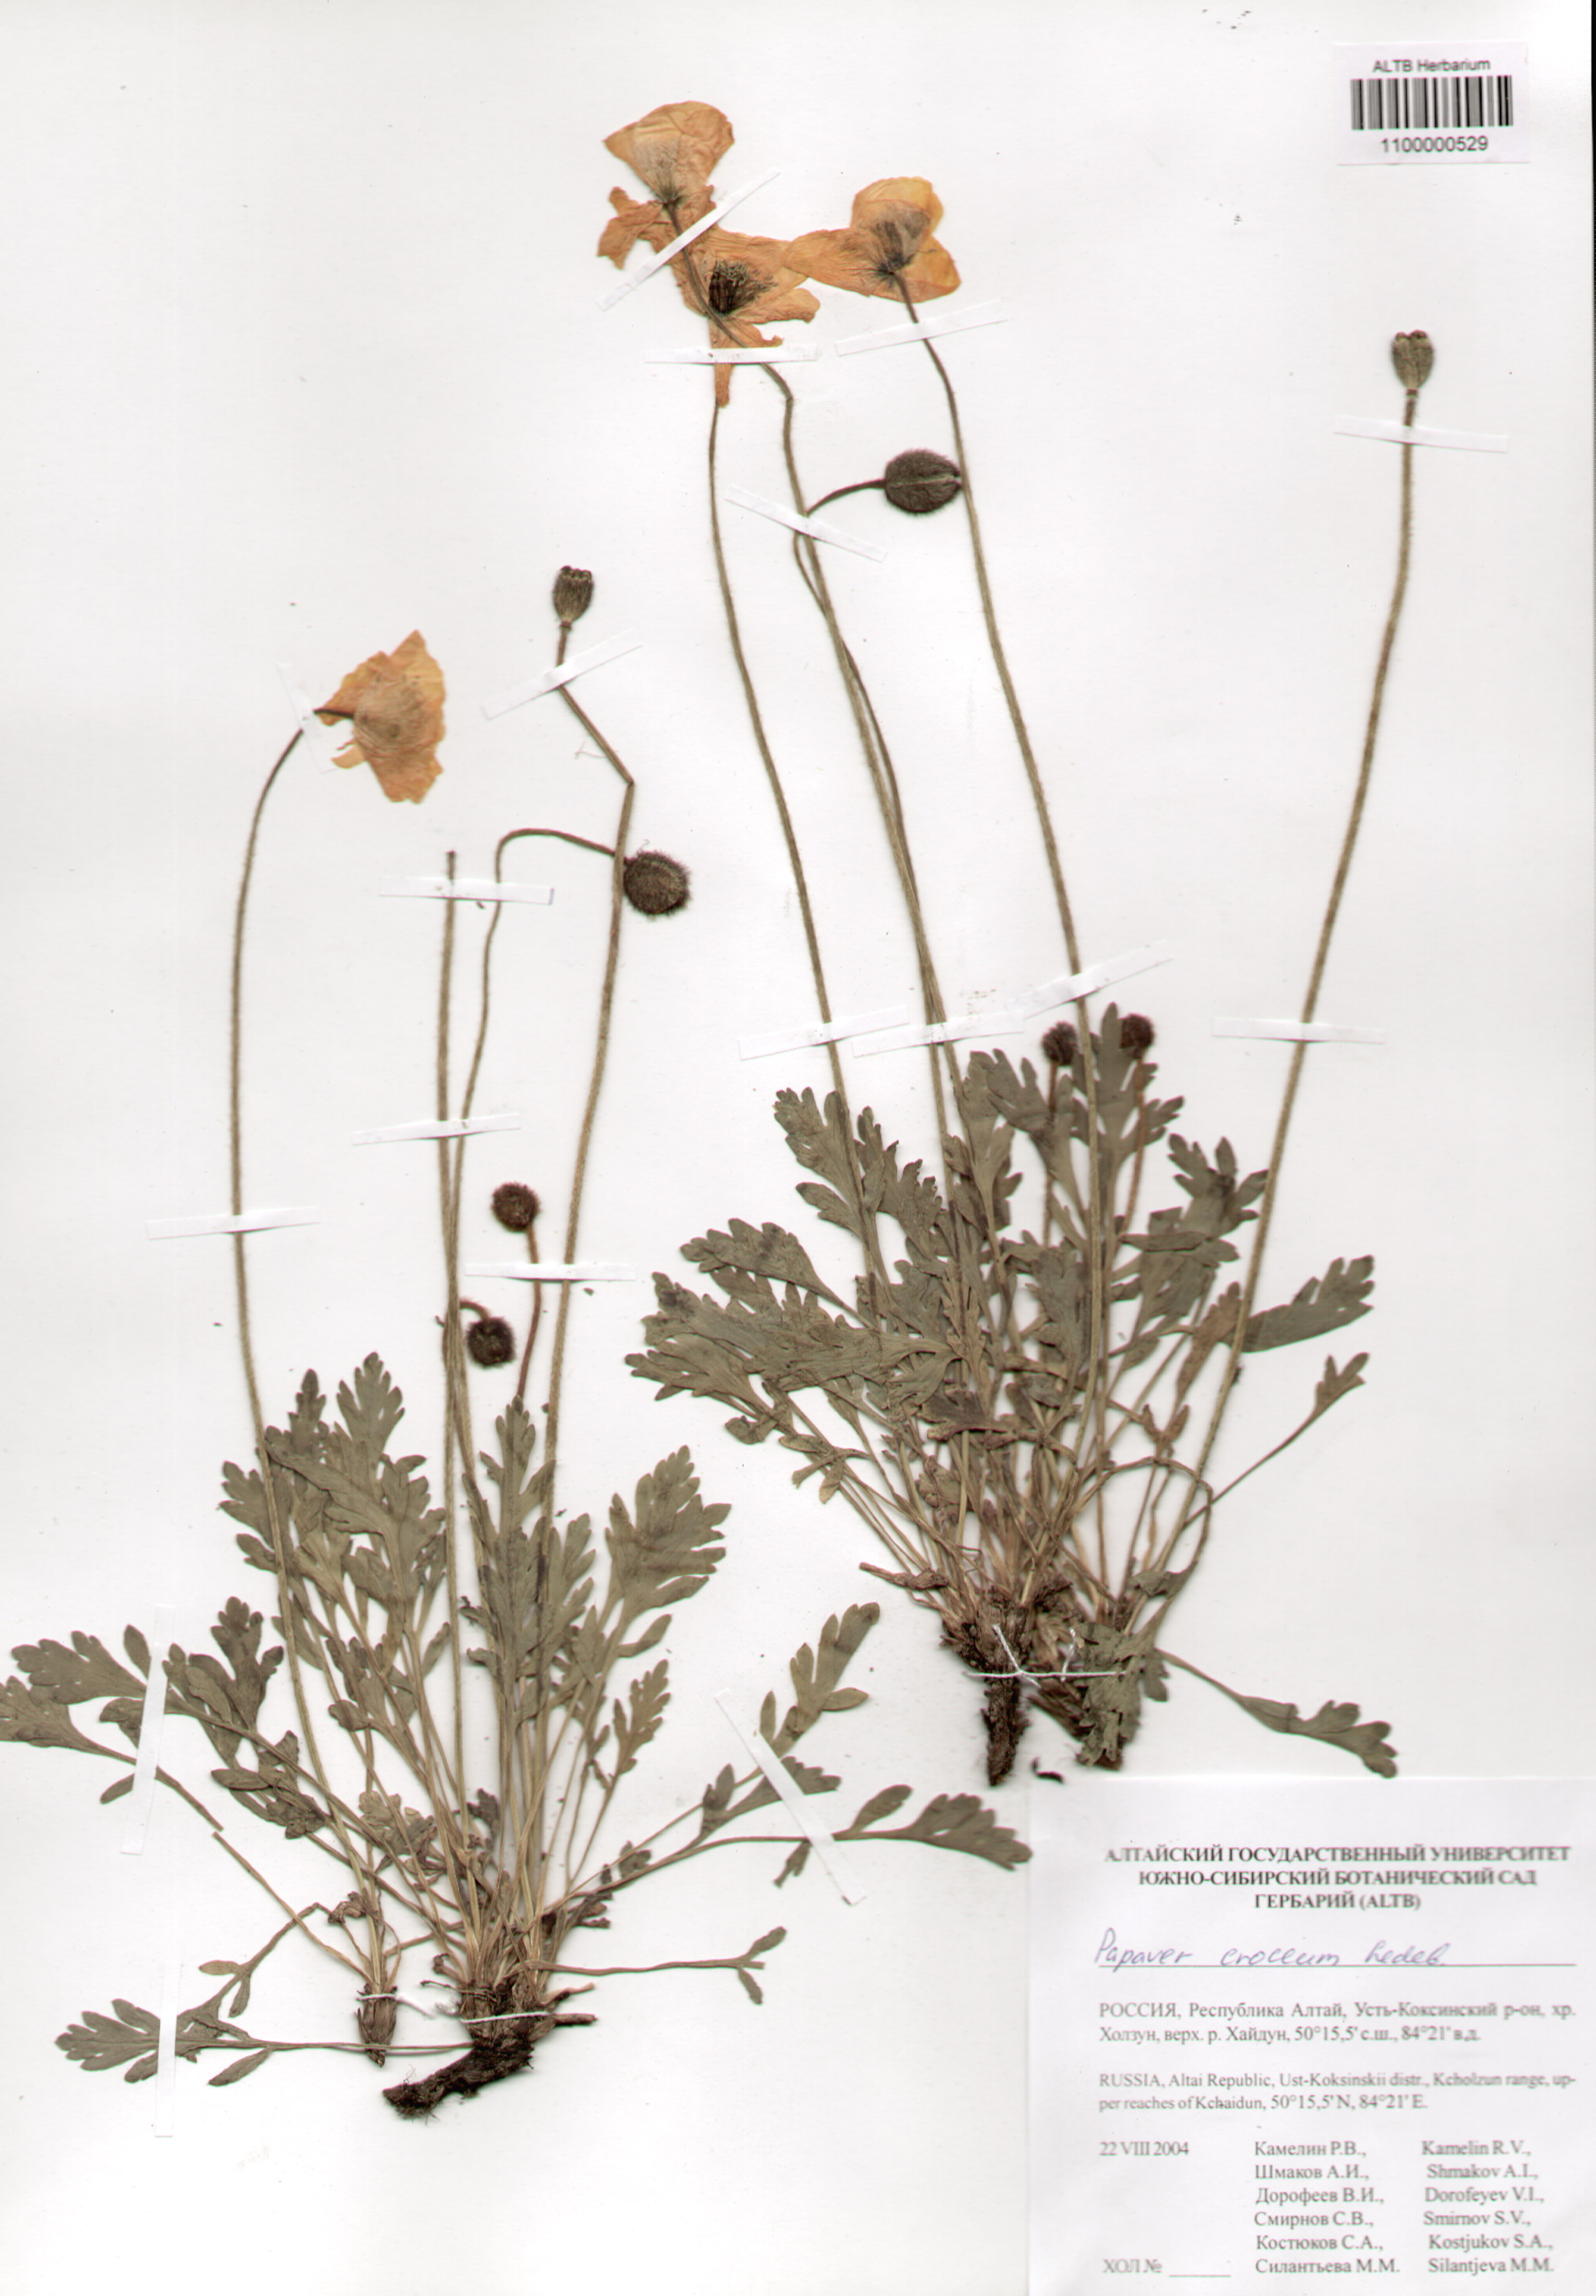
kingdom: Plantae
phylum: Tracheophyta
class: Magnoliopsida
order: Ranunculales
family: Papaveraceae
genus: Papaver
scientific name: Papaver croceum
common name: Siberian poppy
